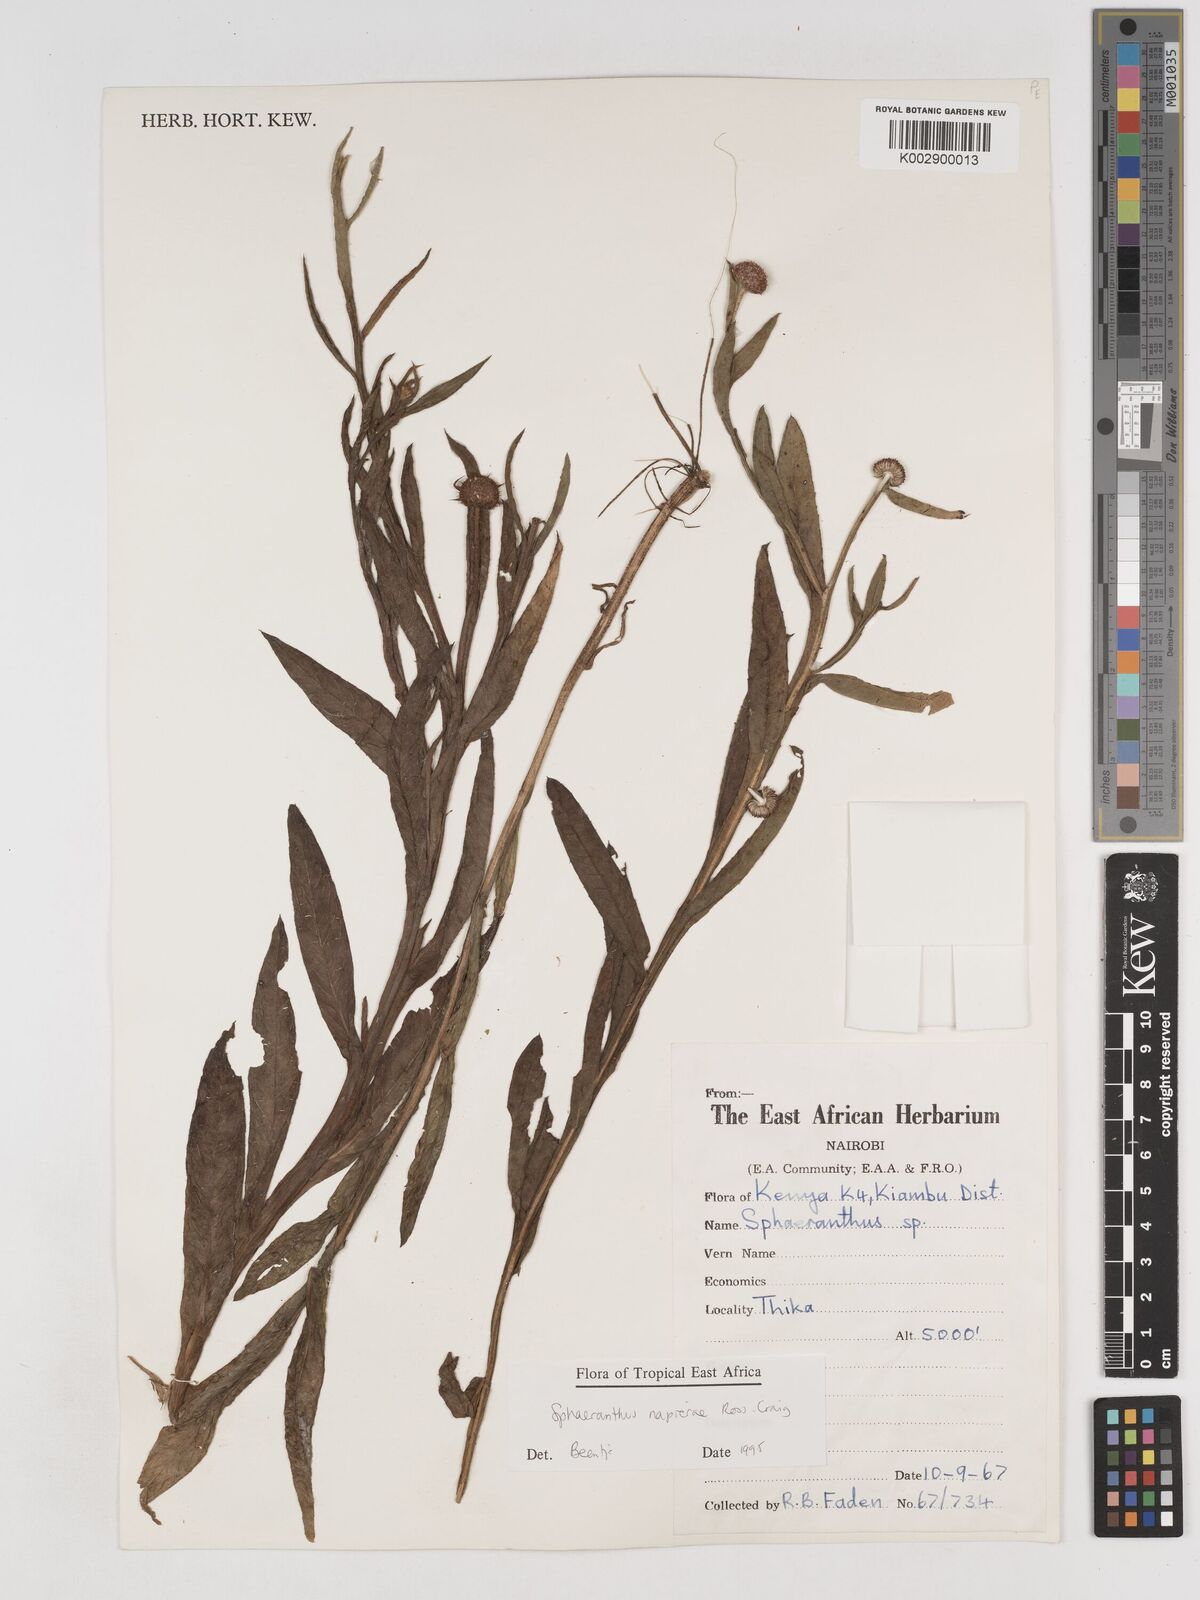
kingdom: Plantae
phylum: Tracheophyta
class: Magnoliopsida
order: Asterales
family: Asteraceae
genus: Sphaeranthus
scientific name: Sphaeranthus suaveolens
